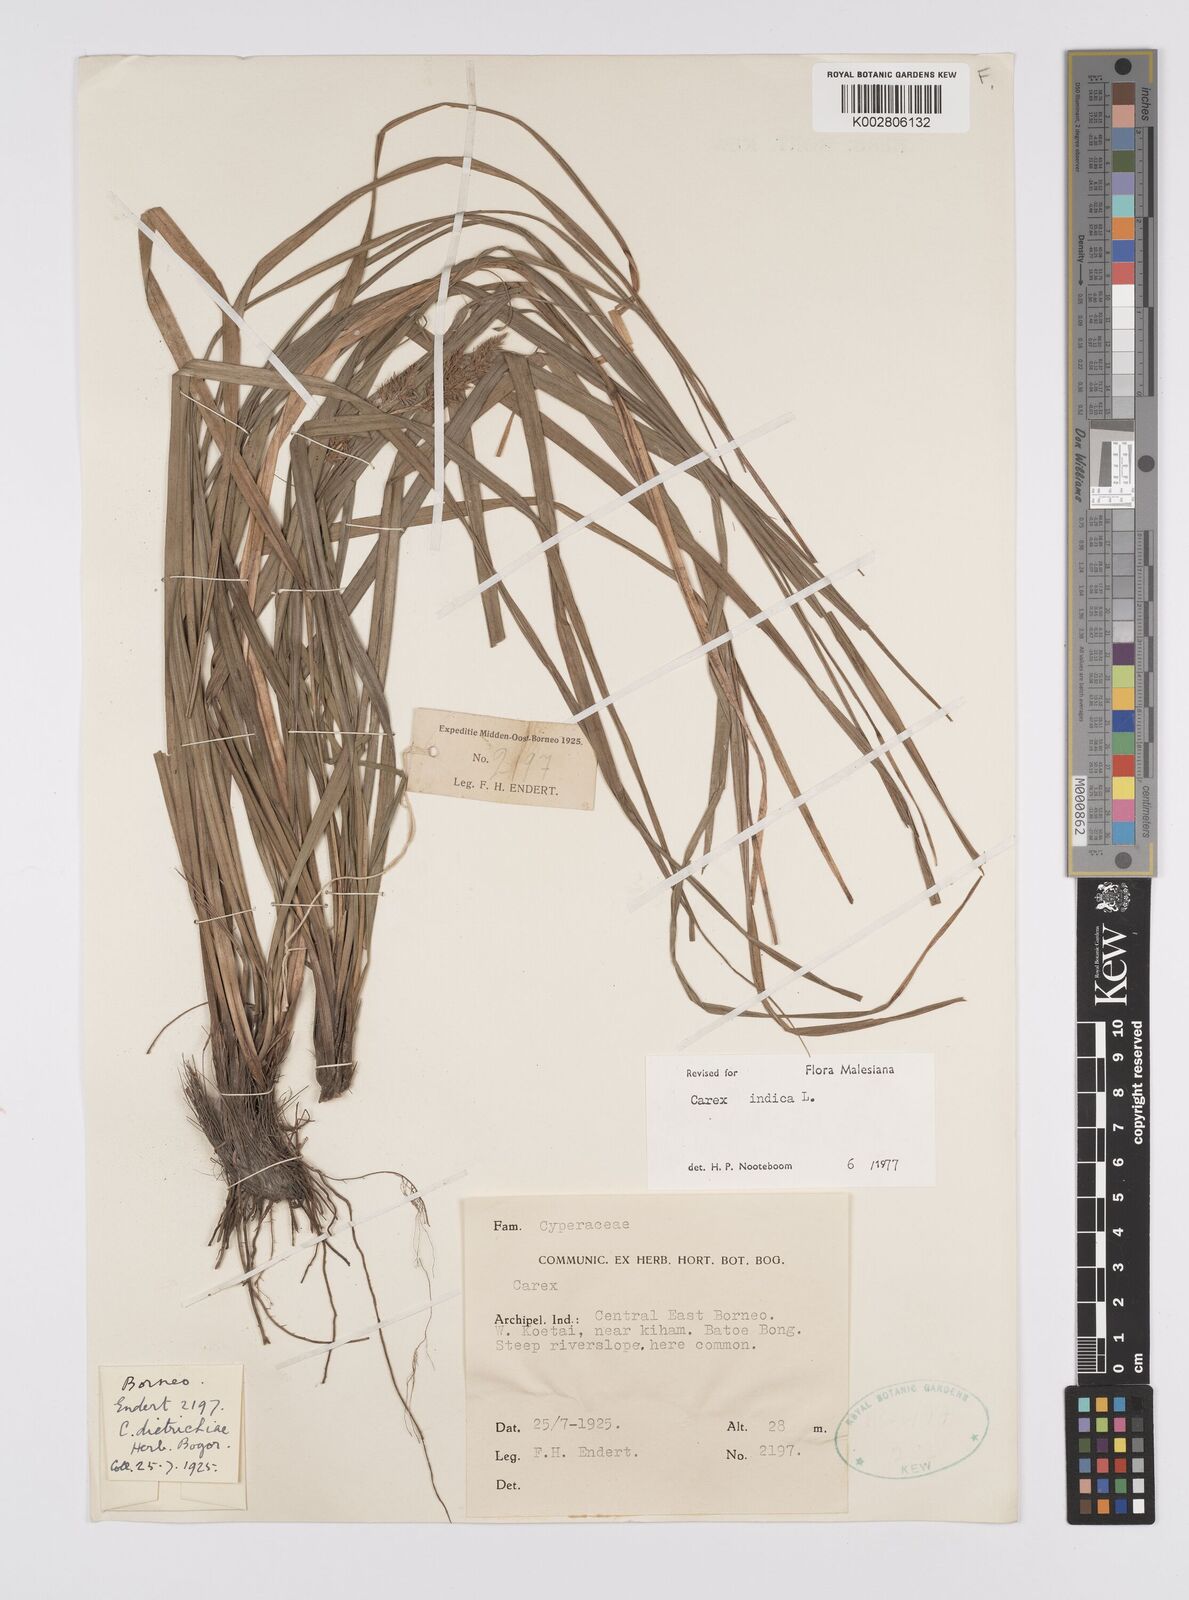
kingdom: Plantae
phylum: Tracheophyta
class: Liliopsida
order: Poales
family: Cyperaceae
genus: Carex
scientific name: Carex indica
